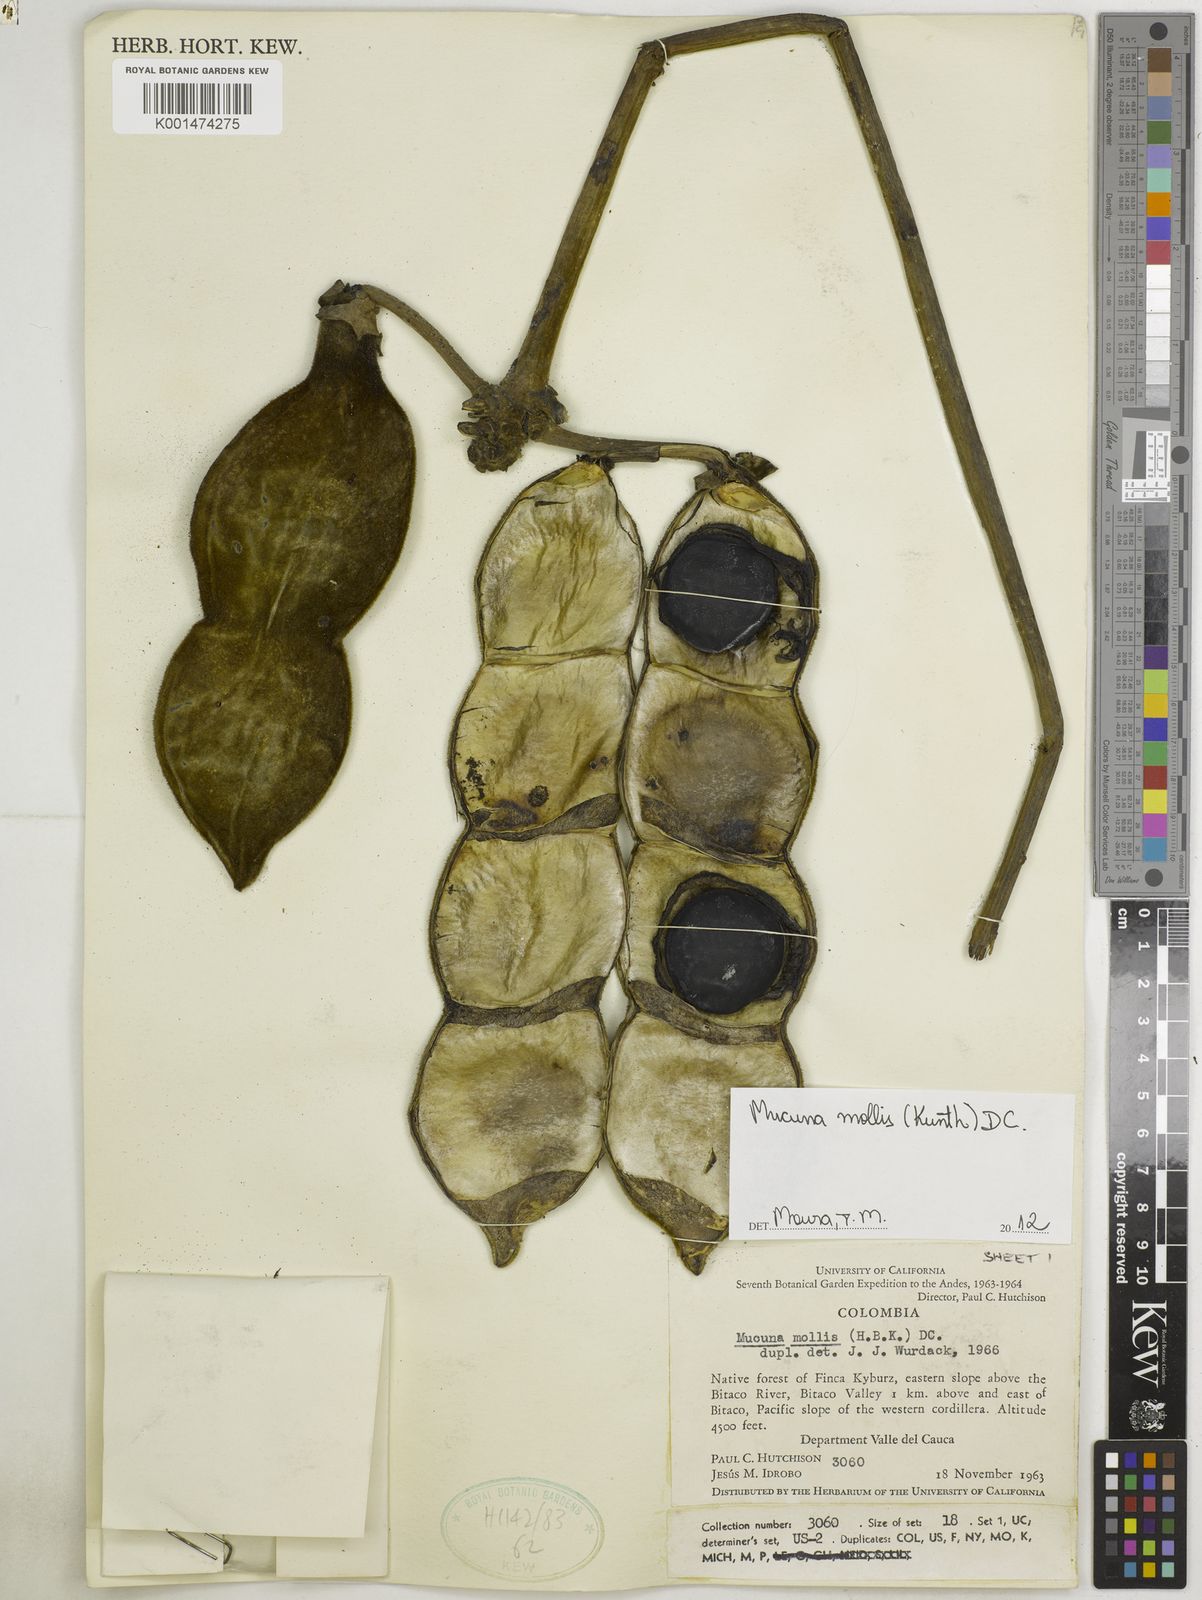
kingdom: Plantae
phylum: Tracheophyta
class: Magnoliopsida
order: Fabales
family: Fabaceae
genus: Mucuna
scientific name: Mucuna mollis
